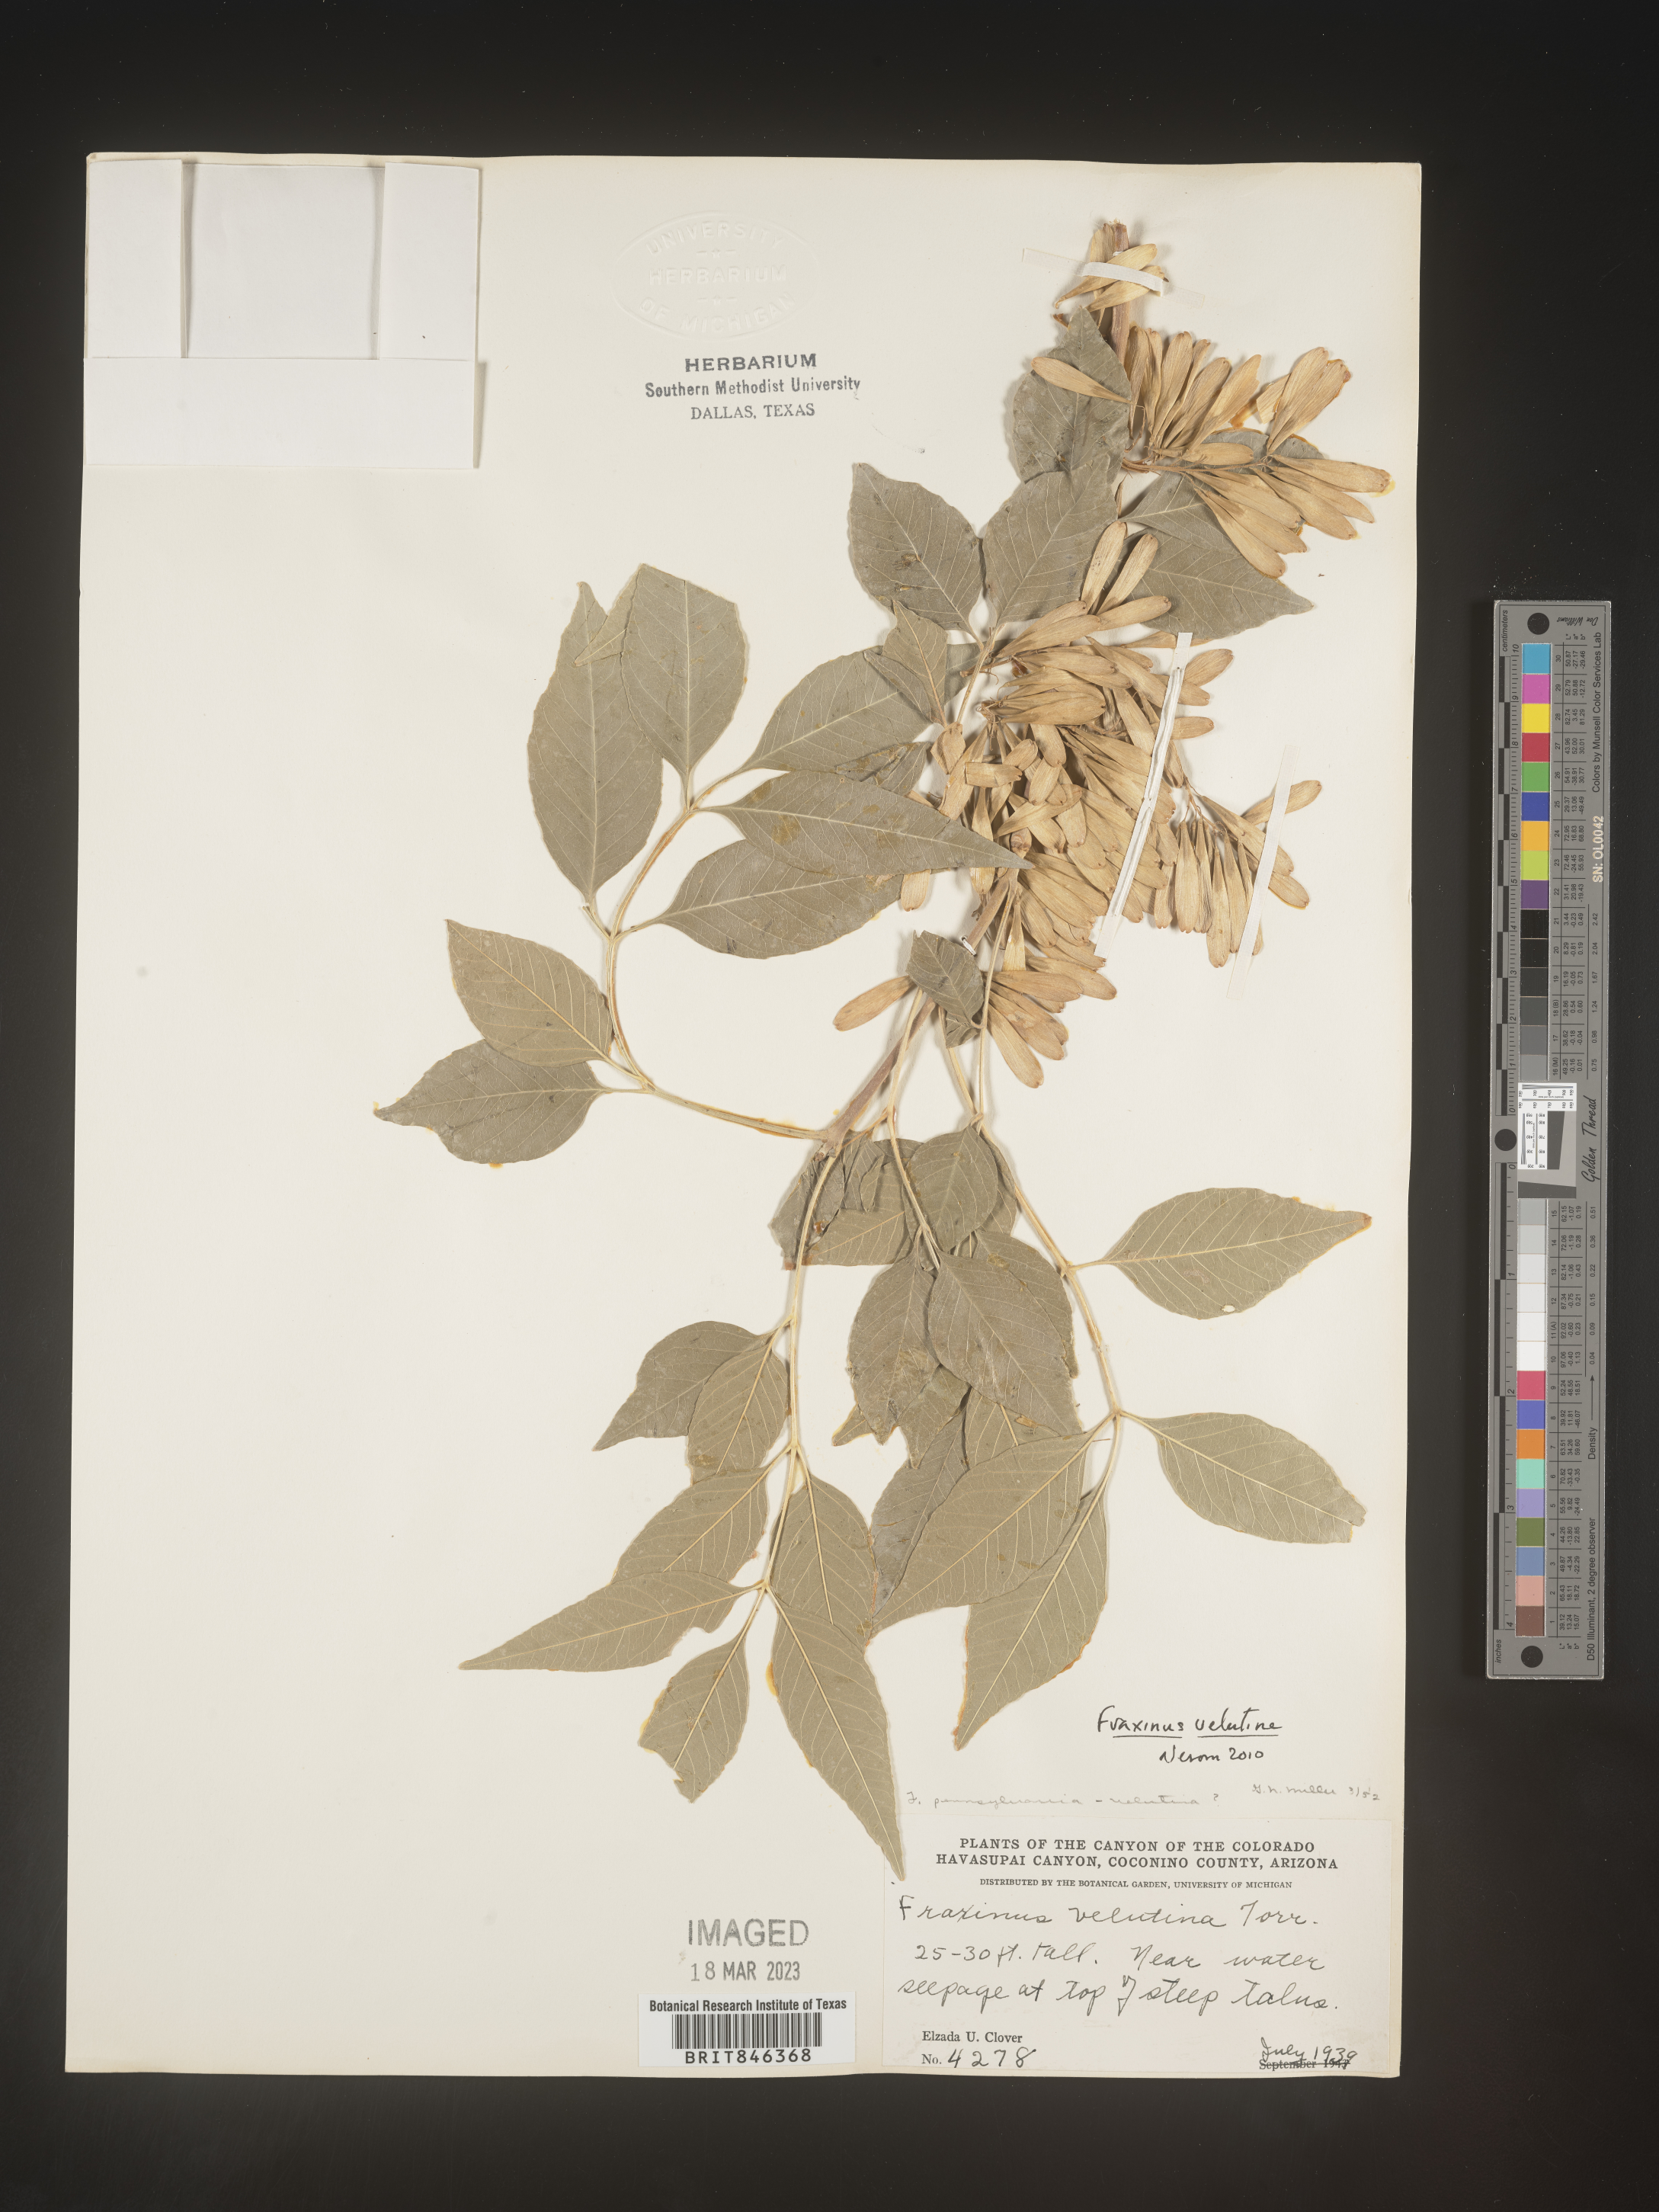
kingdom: Plantae
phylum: Tracheophyta
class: Magnoliopsida
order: Lamiales
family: Oleaceae
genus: Fraxinus
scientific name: Fraxinus velutina
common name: Arizon ash
